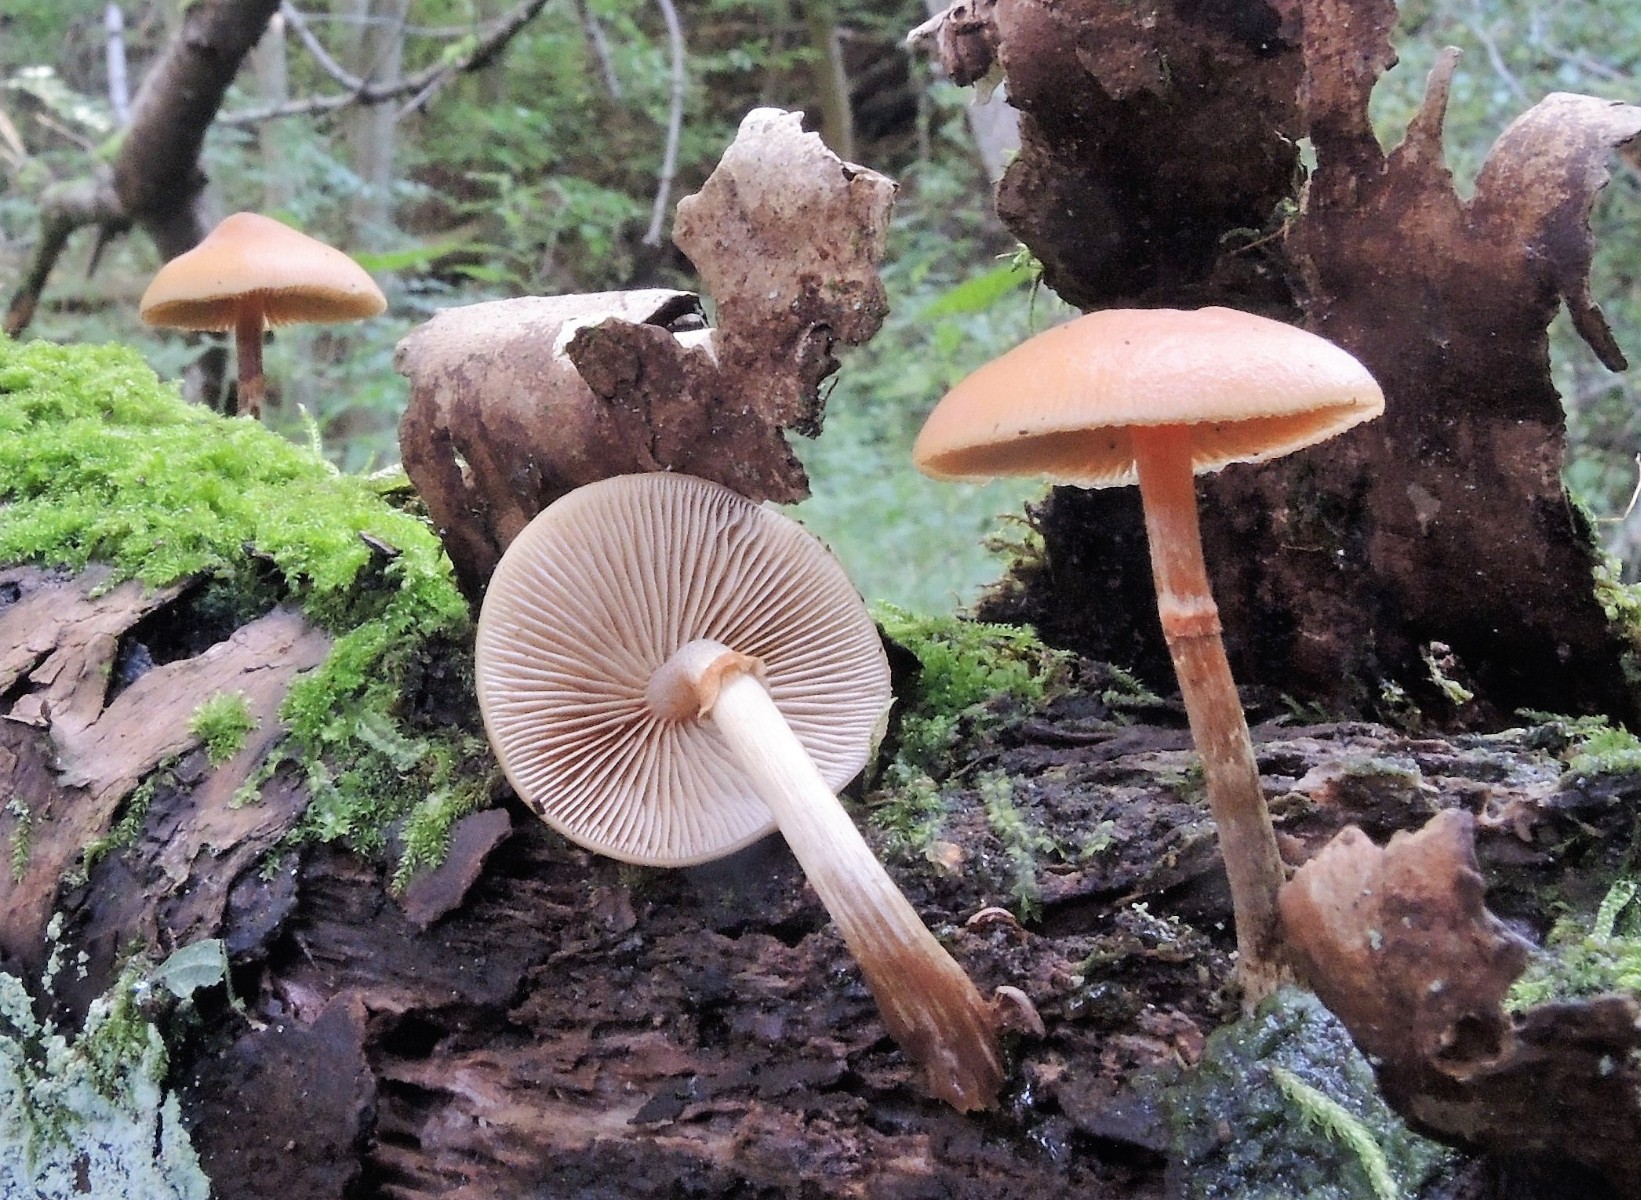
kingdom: Fungi
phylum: Basidiomycota
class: Agaricomycetes
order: Agaricales
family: Hymenogastraceae
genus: Galerina
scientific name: Galerina marginata
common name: randbæltet hjelmhat
